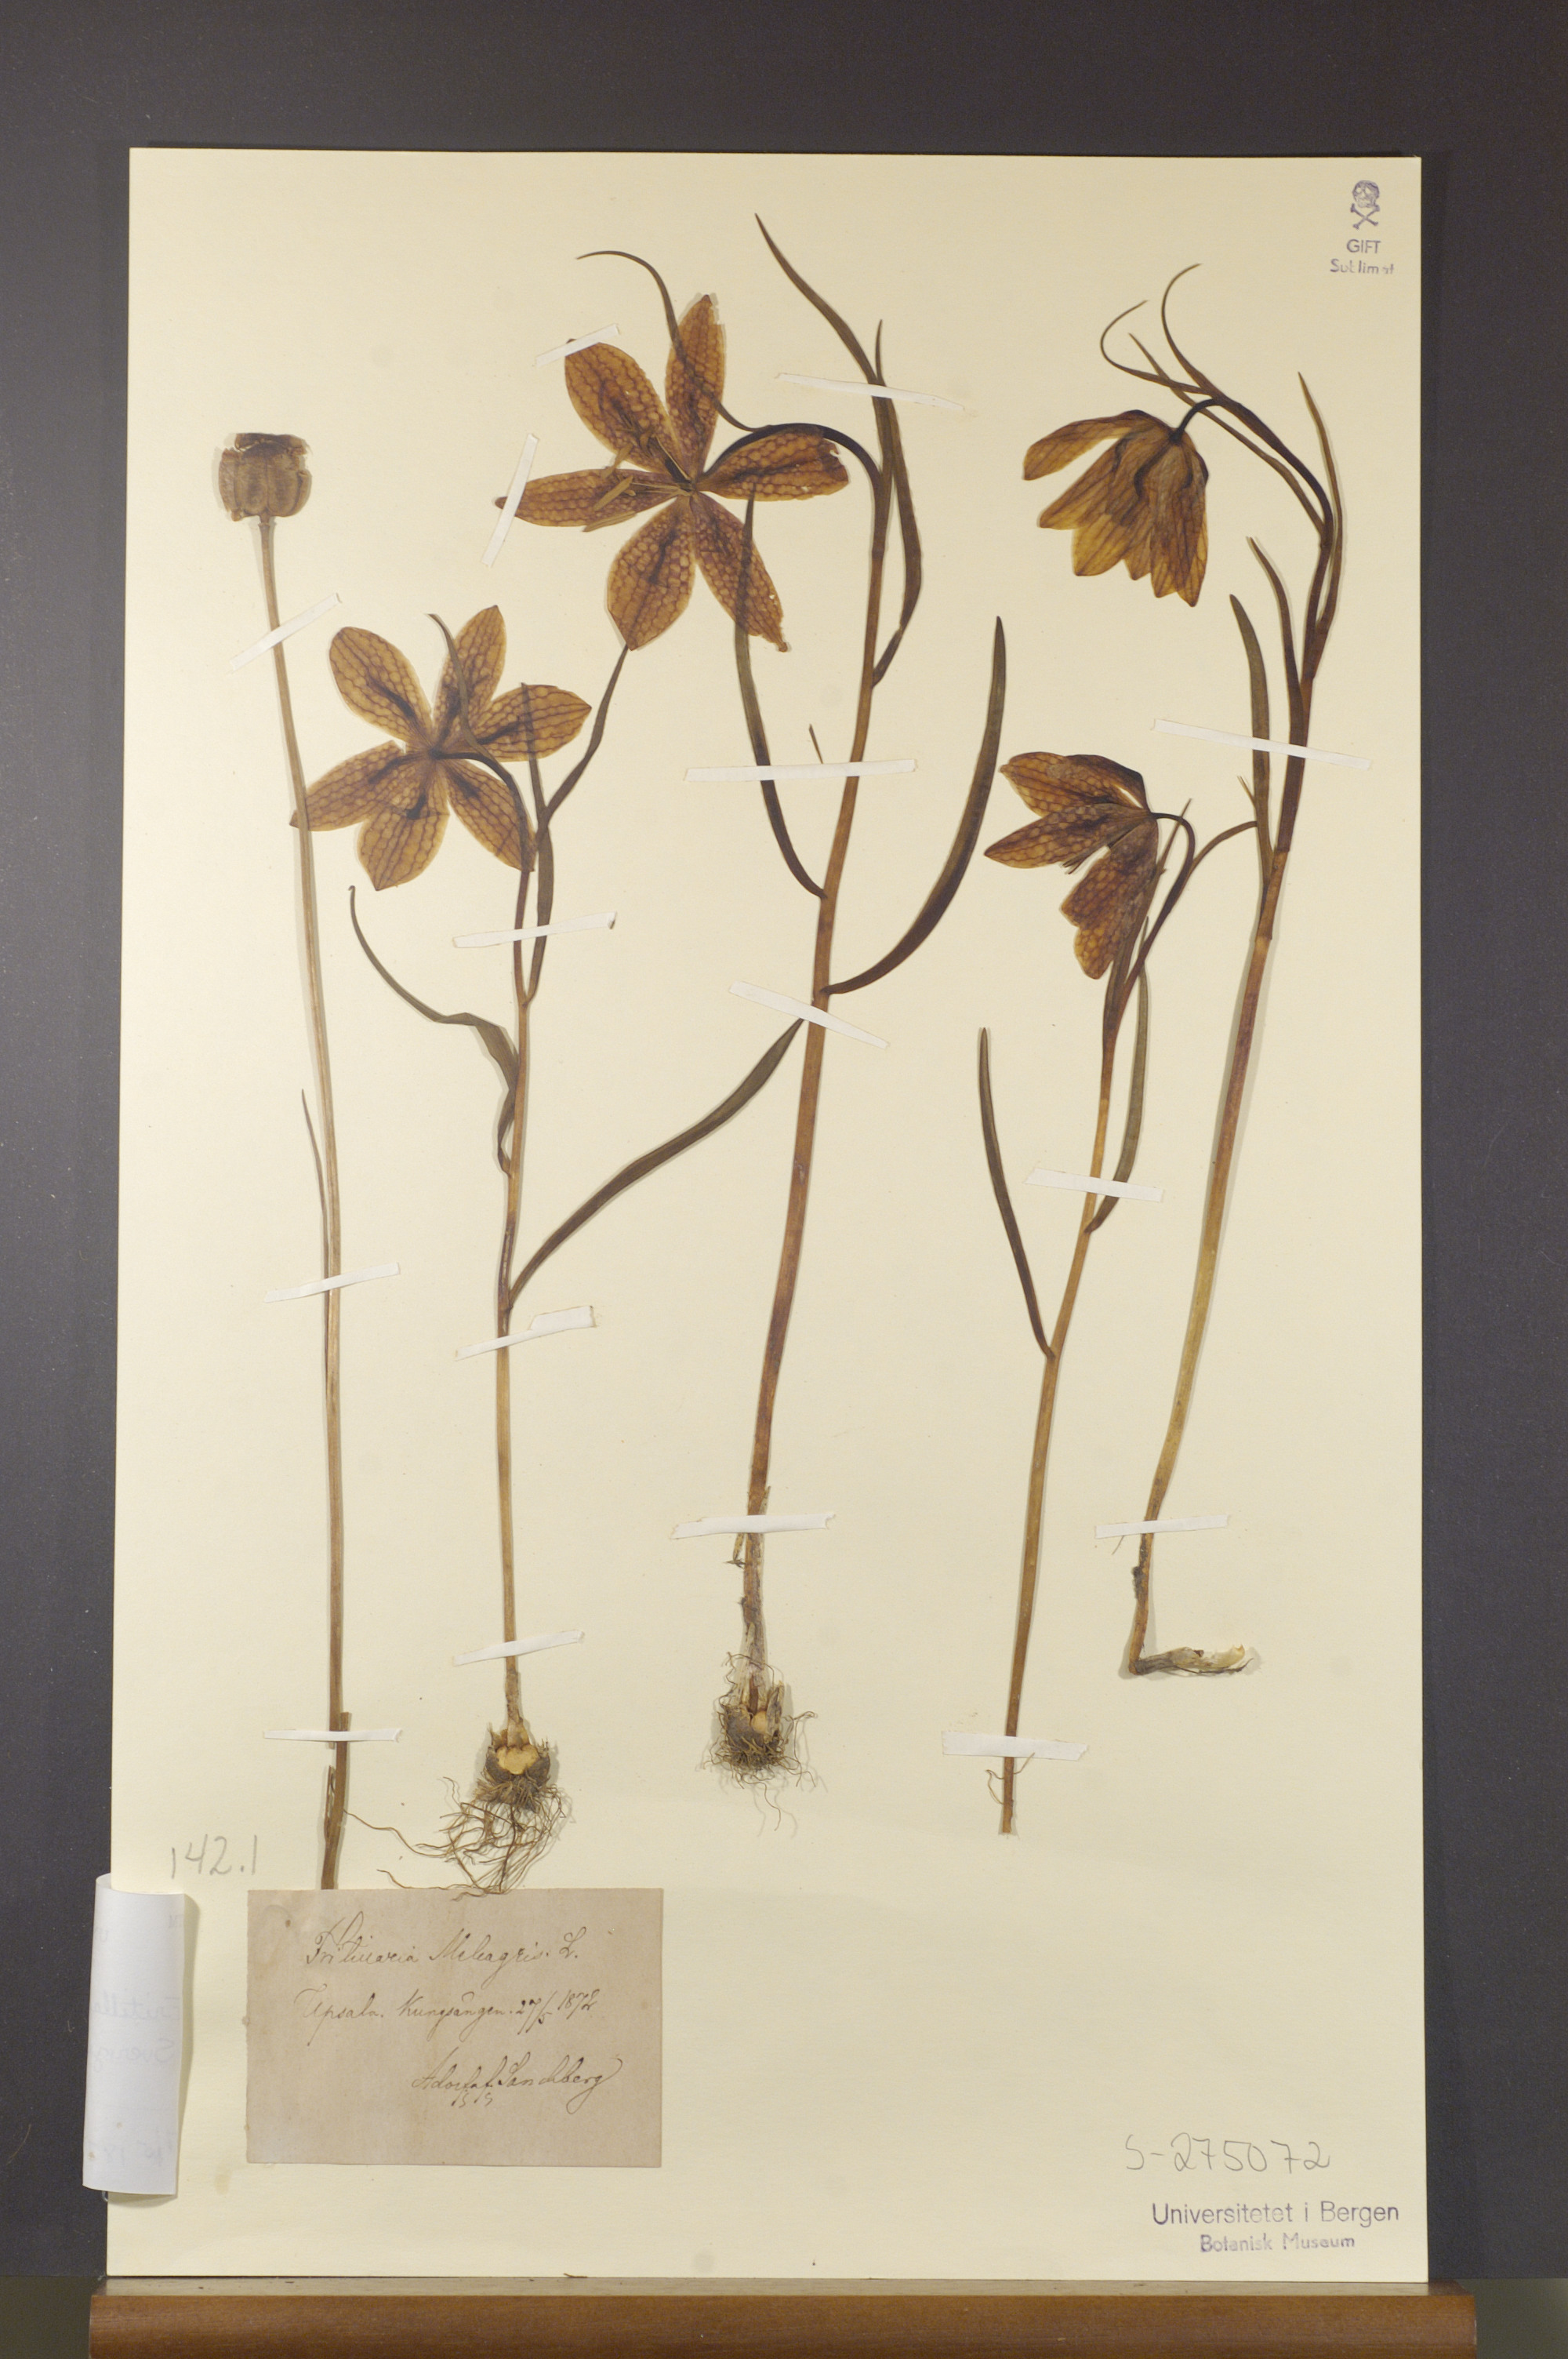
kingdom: Plantae
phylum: Tracheophyta
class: Liliopsida
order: Liliales
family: Liliaceae
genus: Fritillaria
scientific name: Fritillaria meleagris
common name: Fritillary
